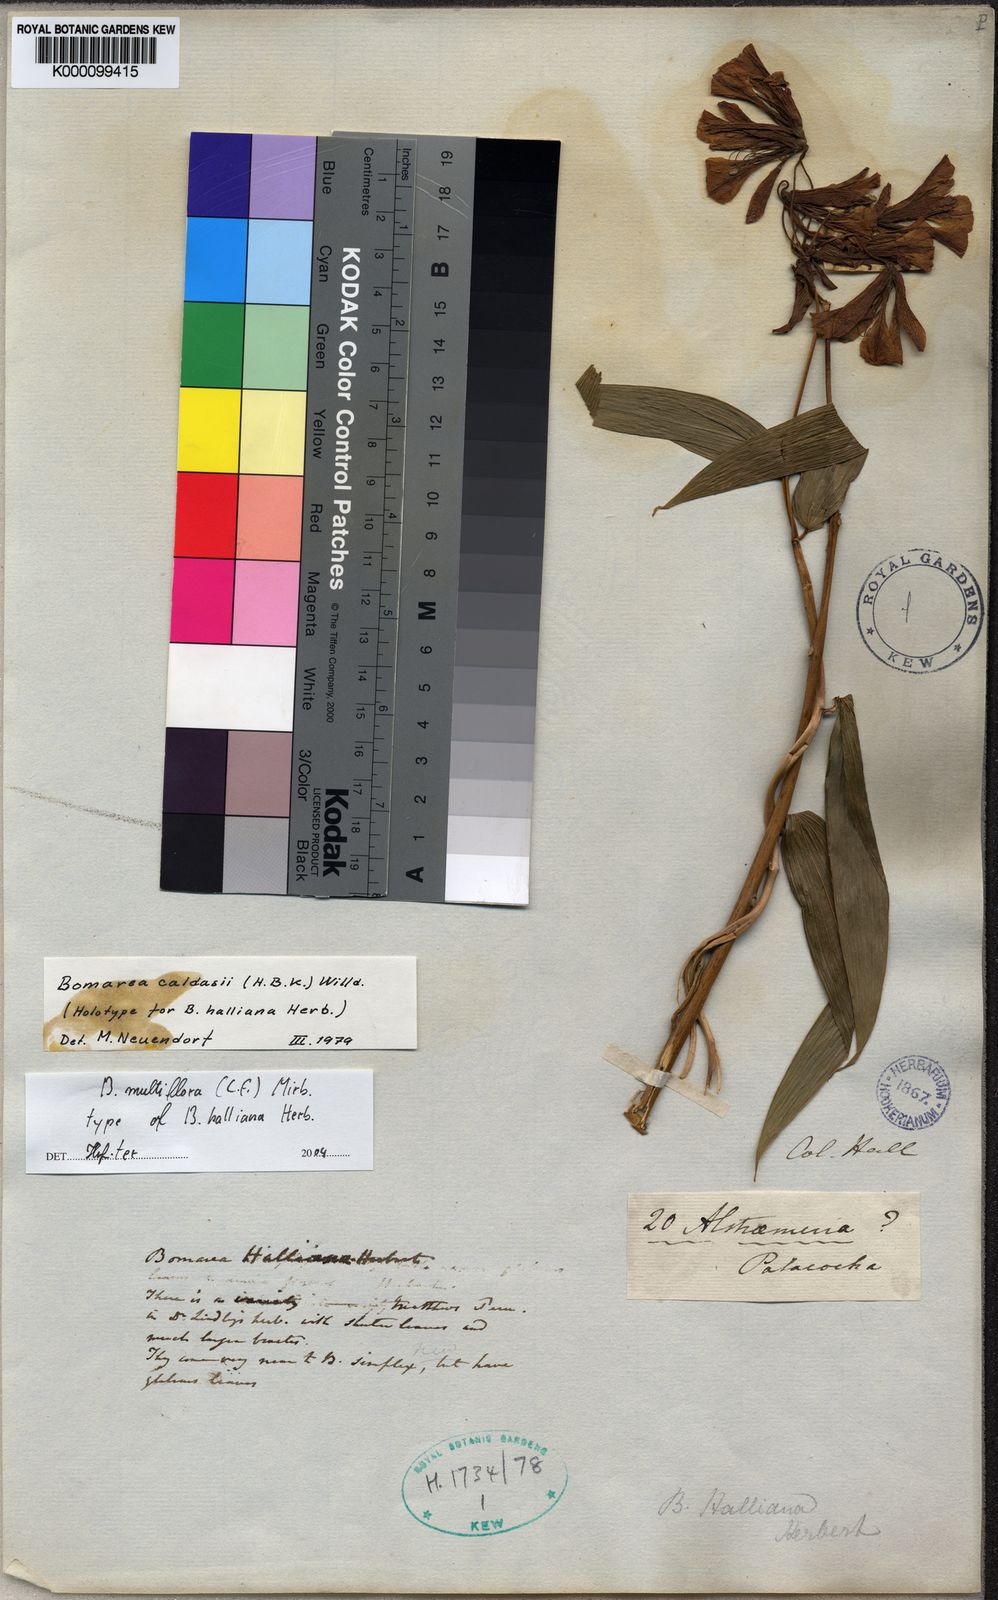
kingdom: Plantae
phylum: Tracheophyta
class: Liliopsida
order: Liliales
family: Alstroemeriaceae
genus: Bomarea
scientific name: Bomarea multiflora
